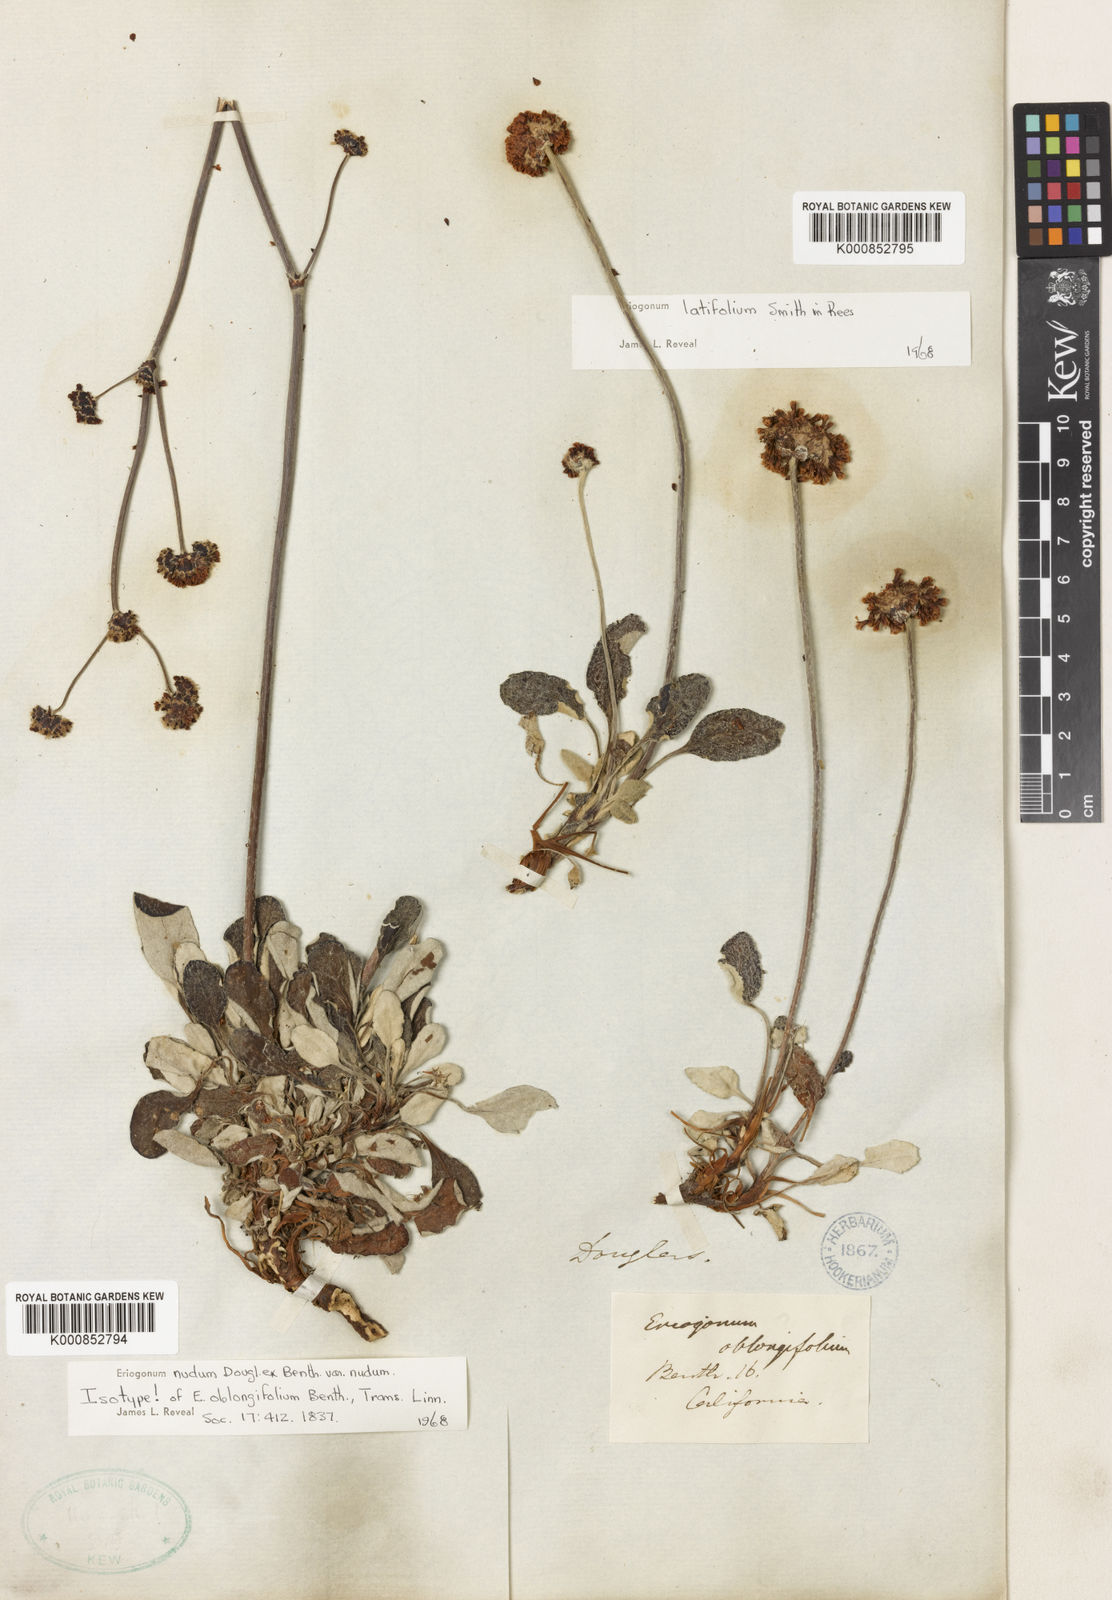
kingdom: Plantae
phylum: Tracheophyta
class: Magnoliopsida
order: Caryophyllales
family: Polygonaceae
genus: Eriogonum
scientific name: Eriogonum nudum
